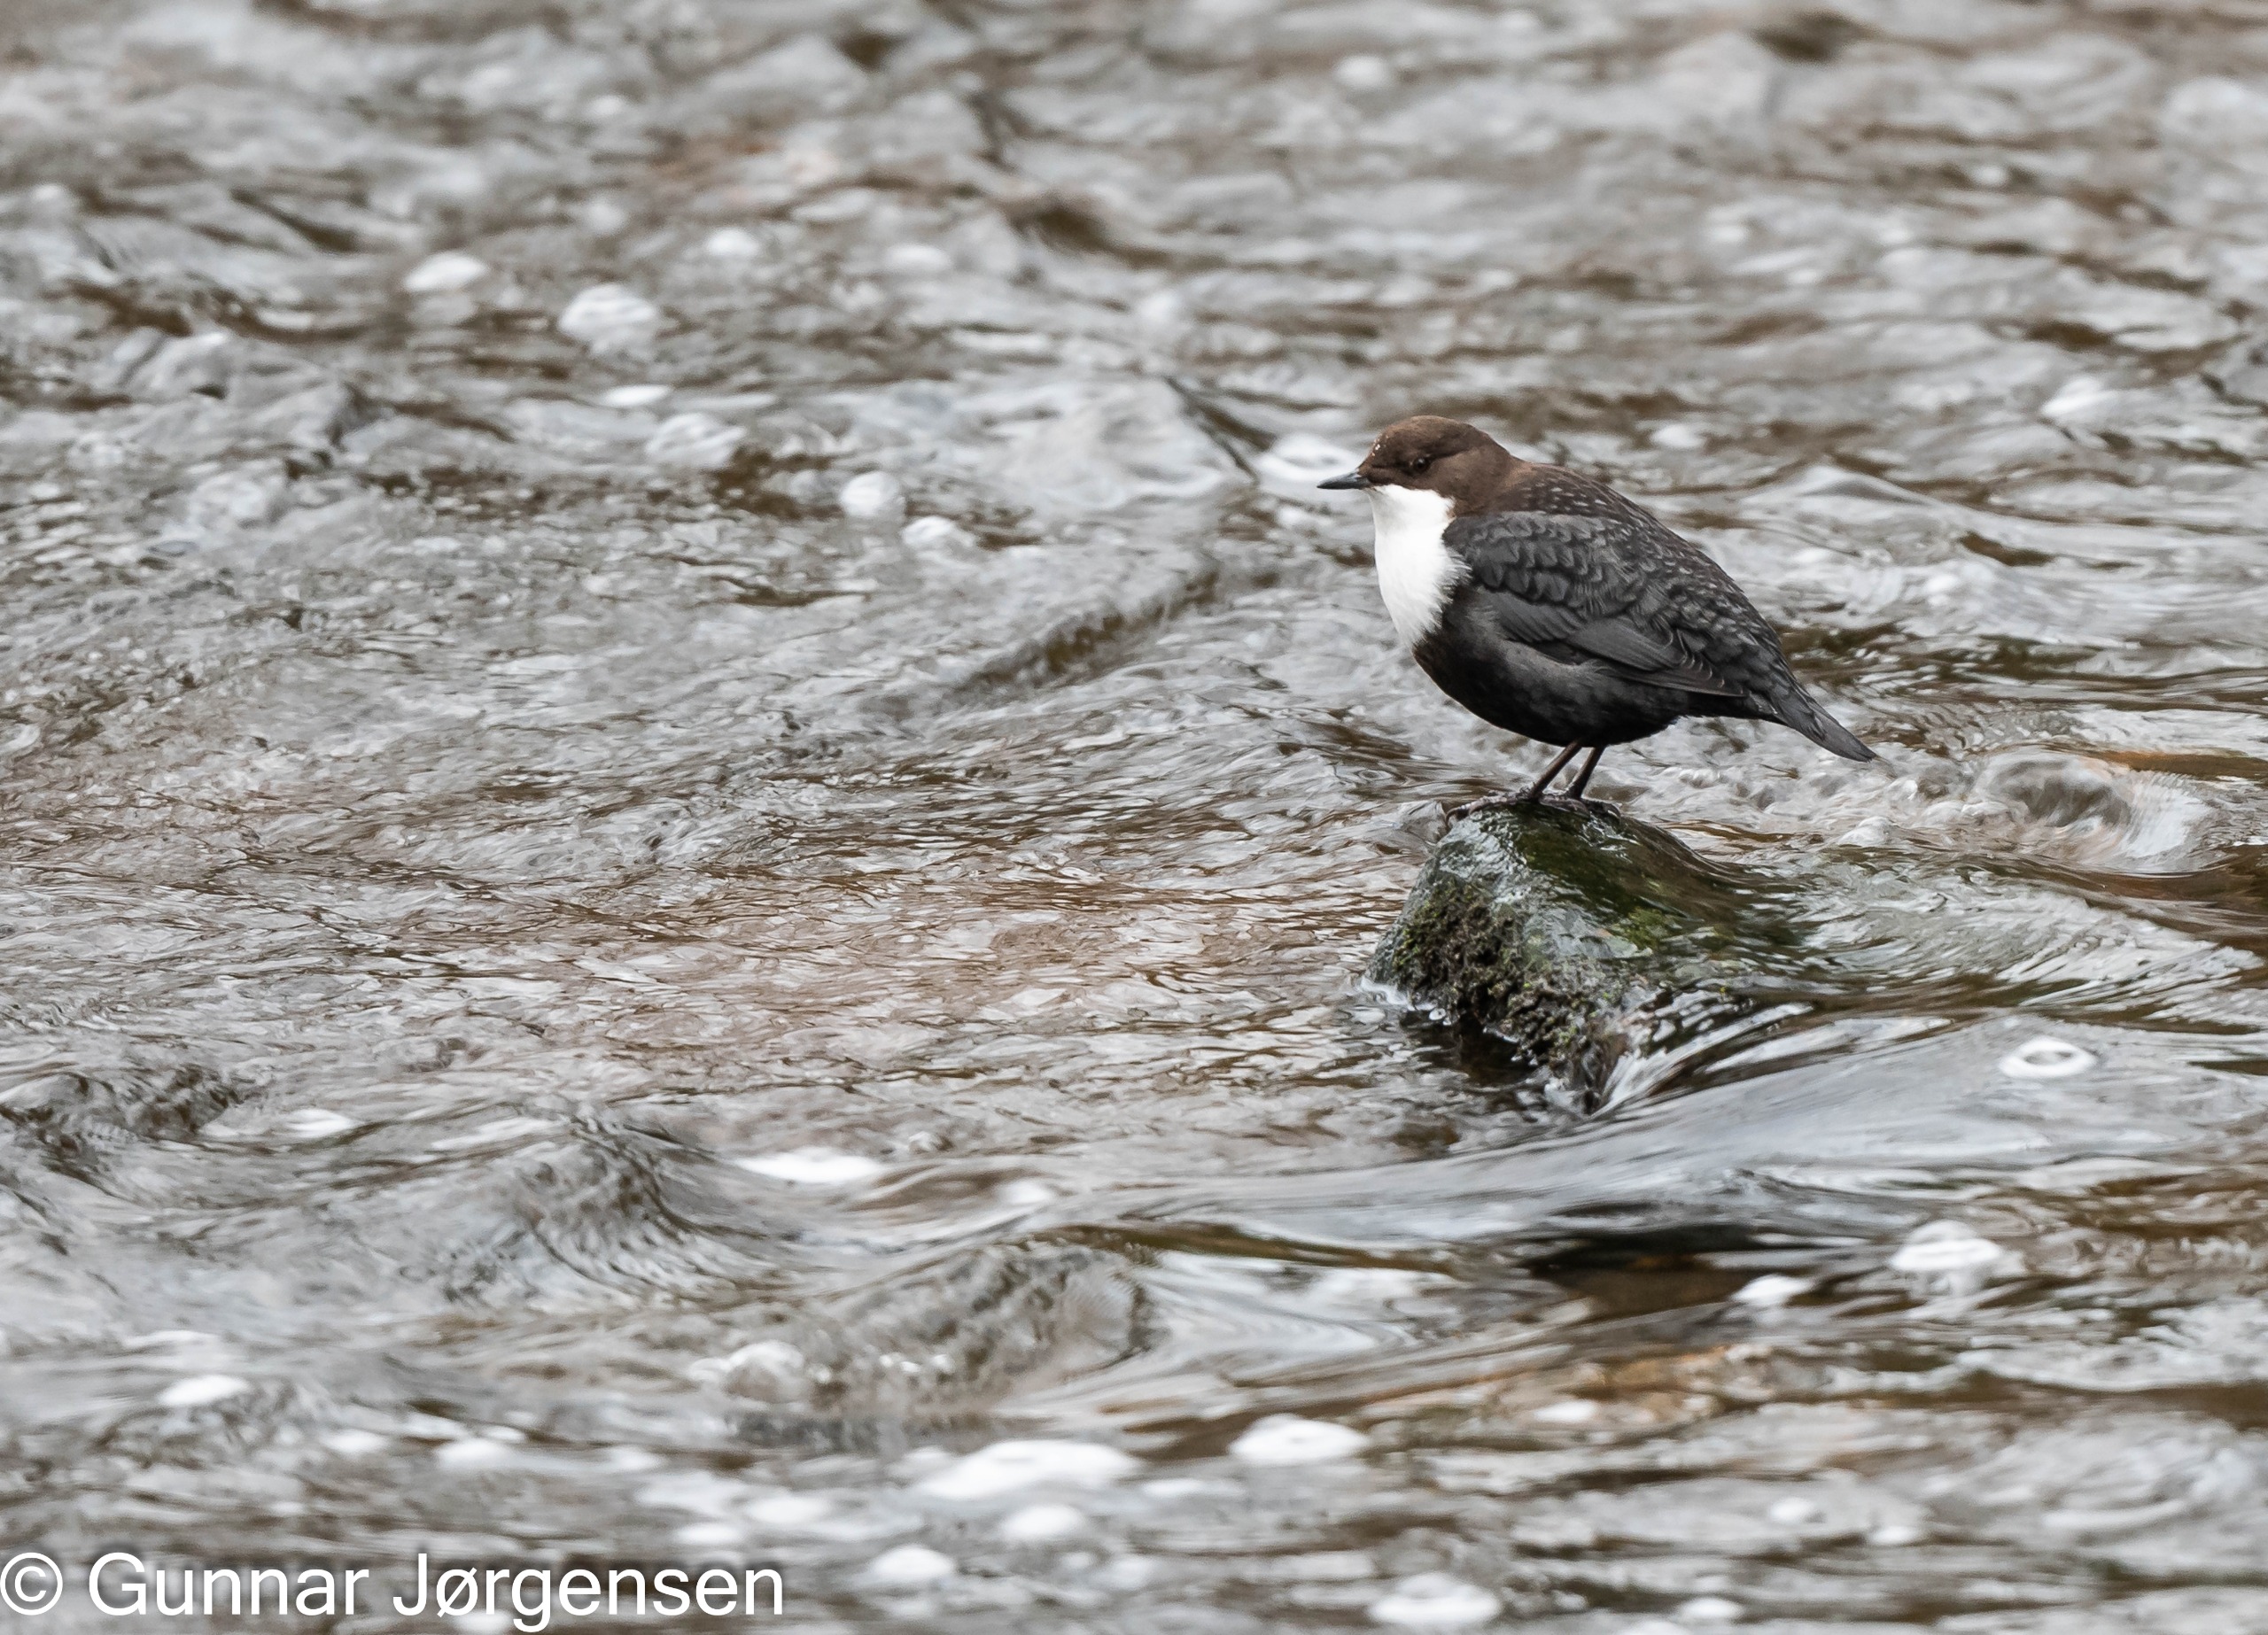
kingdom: Animalia
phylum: Chordata
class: Aves
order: Passeriformes
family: Cinclidae
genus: Cinclus
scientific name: Cinclus cinclus
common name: Vandstær
